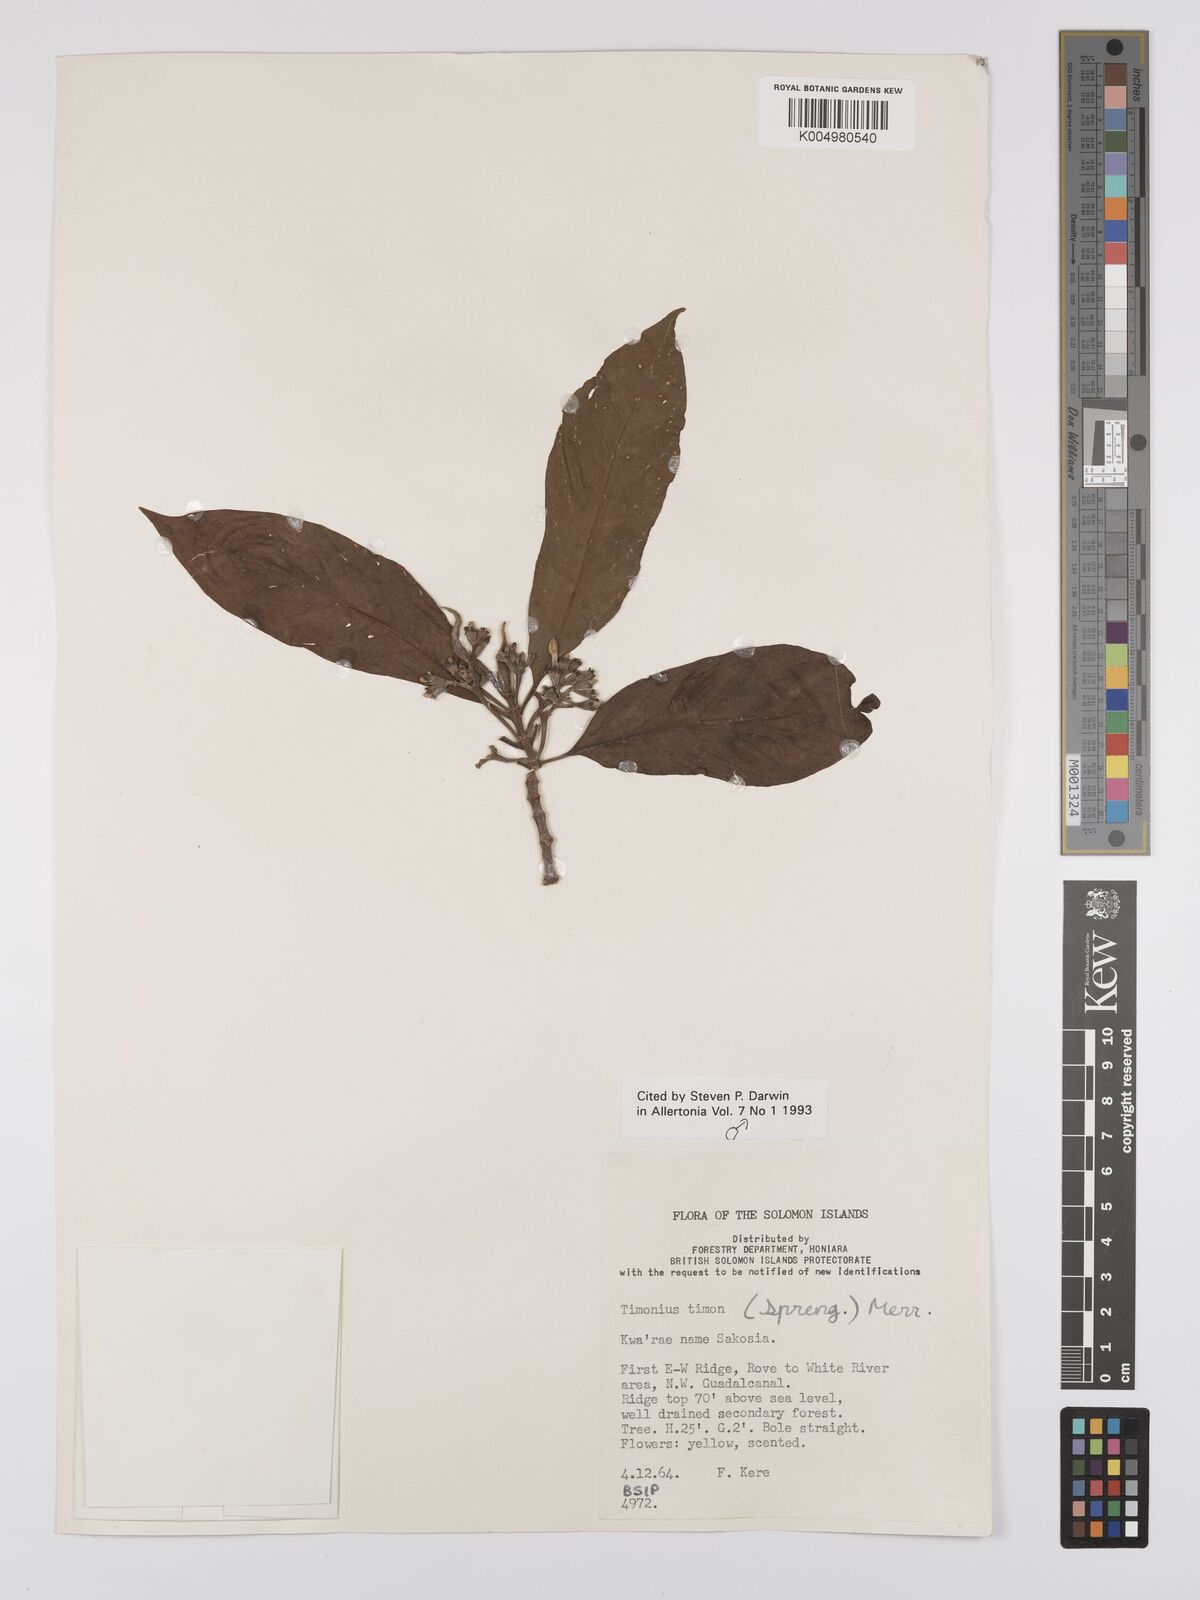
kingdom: Plantae
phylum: Tracheophyta
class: Magnoliopsida
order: Gentianales
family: Rubiaceae
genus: Timonius
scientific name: Timonius timon
